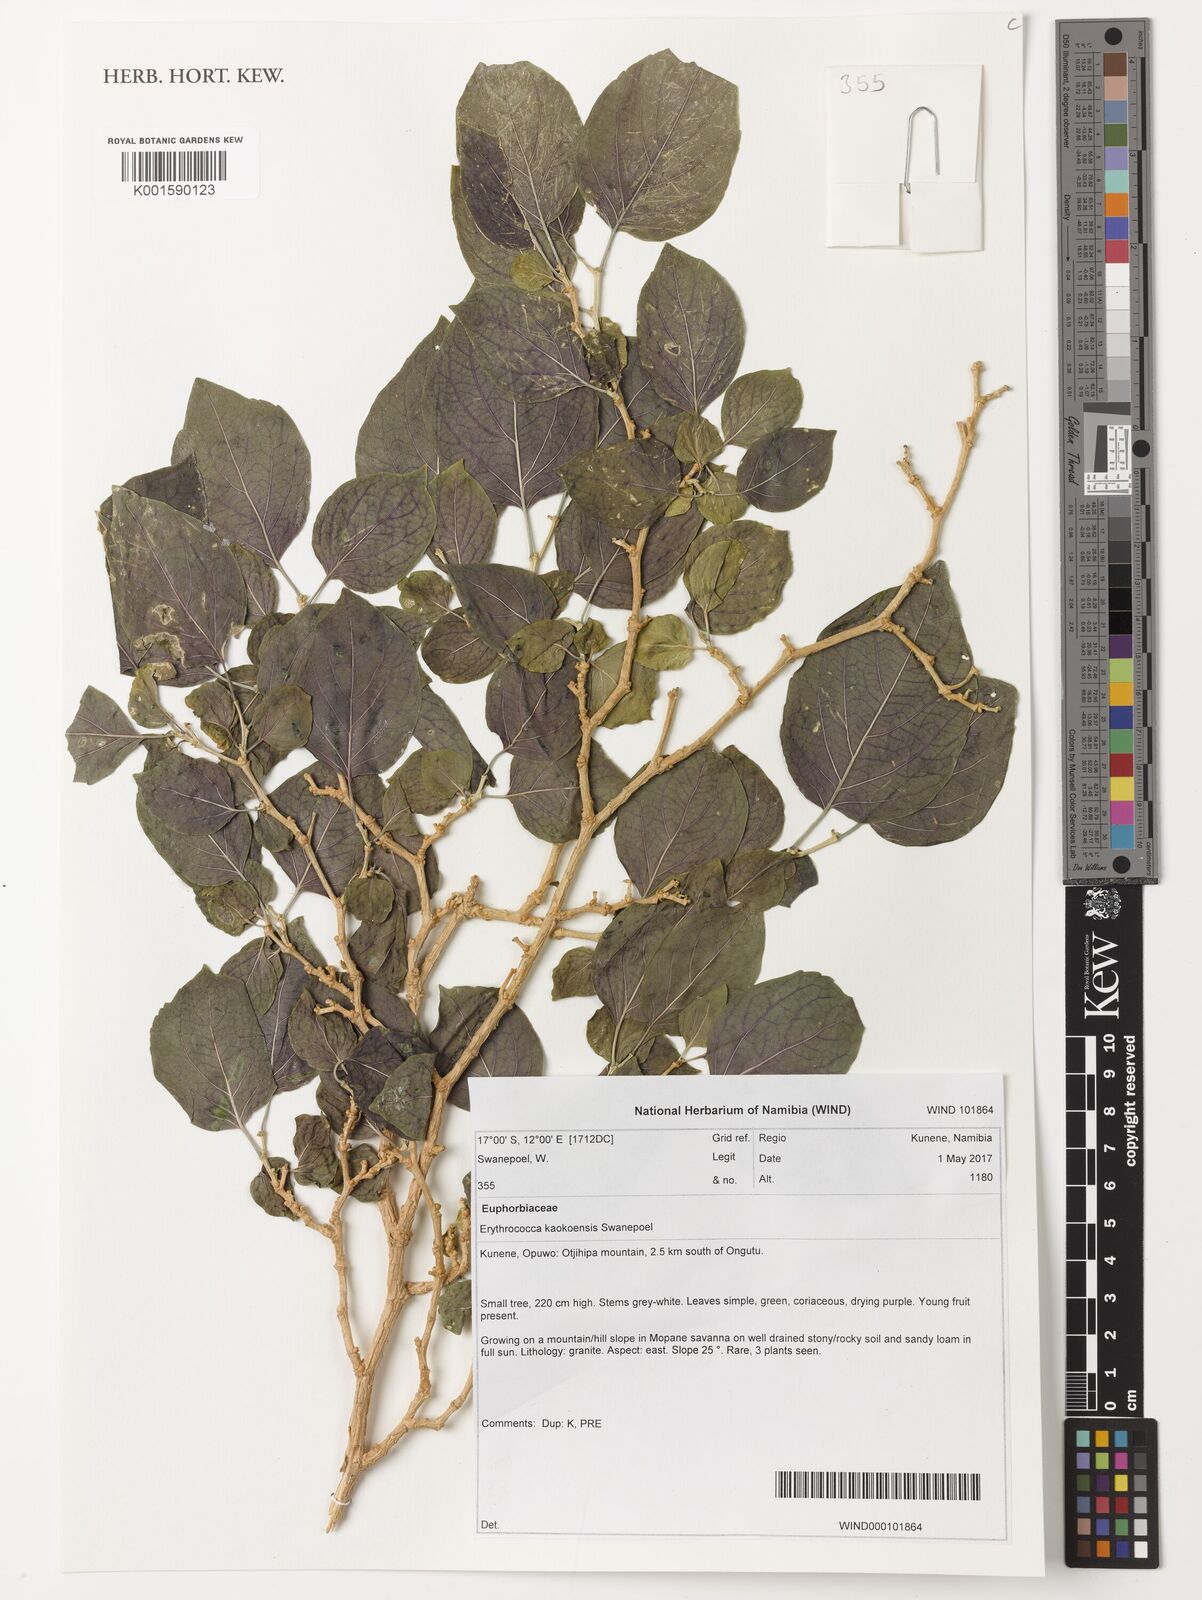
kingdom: Plantae
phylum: Tracheophyta
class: Magnoliopsida
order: Malpighiales
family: Euphorbiaceae
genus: Erythrococca
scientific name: Erythrococca kaokoensis
